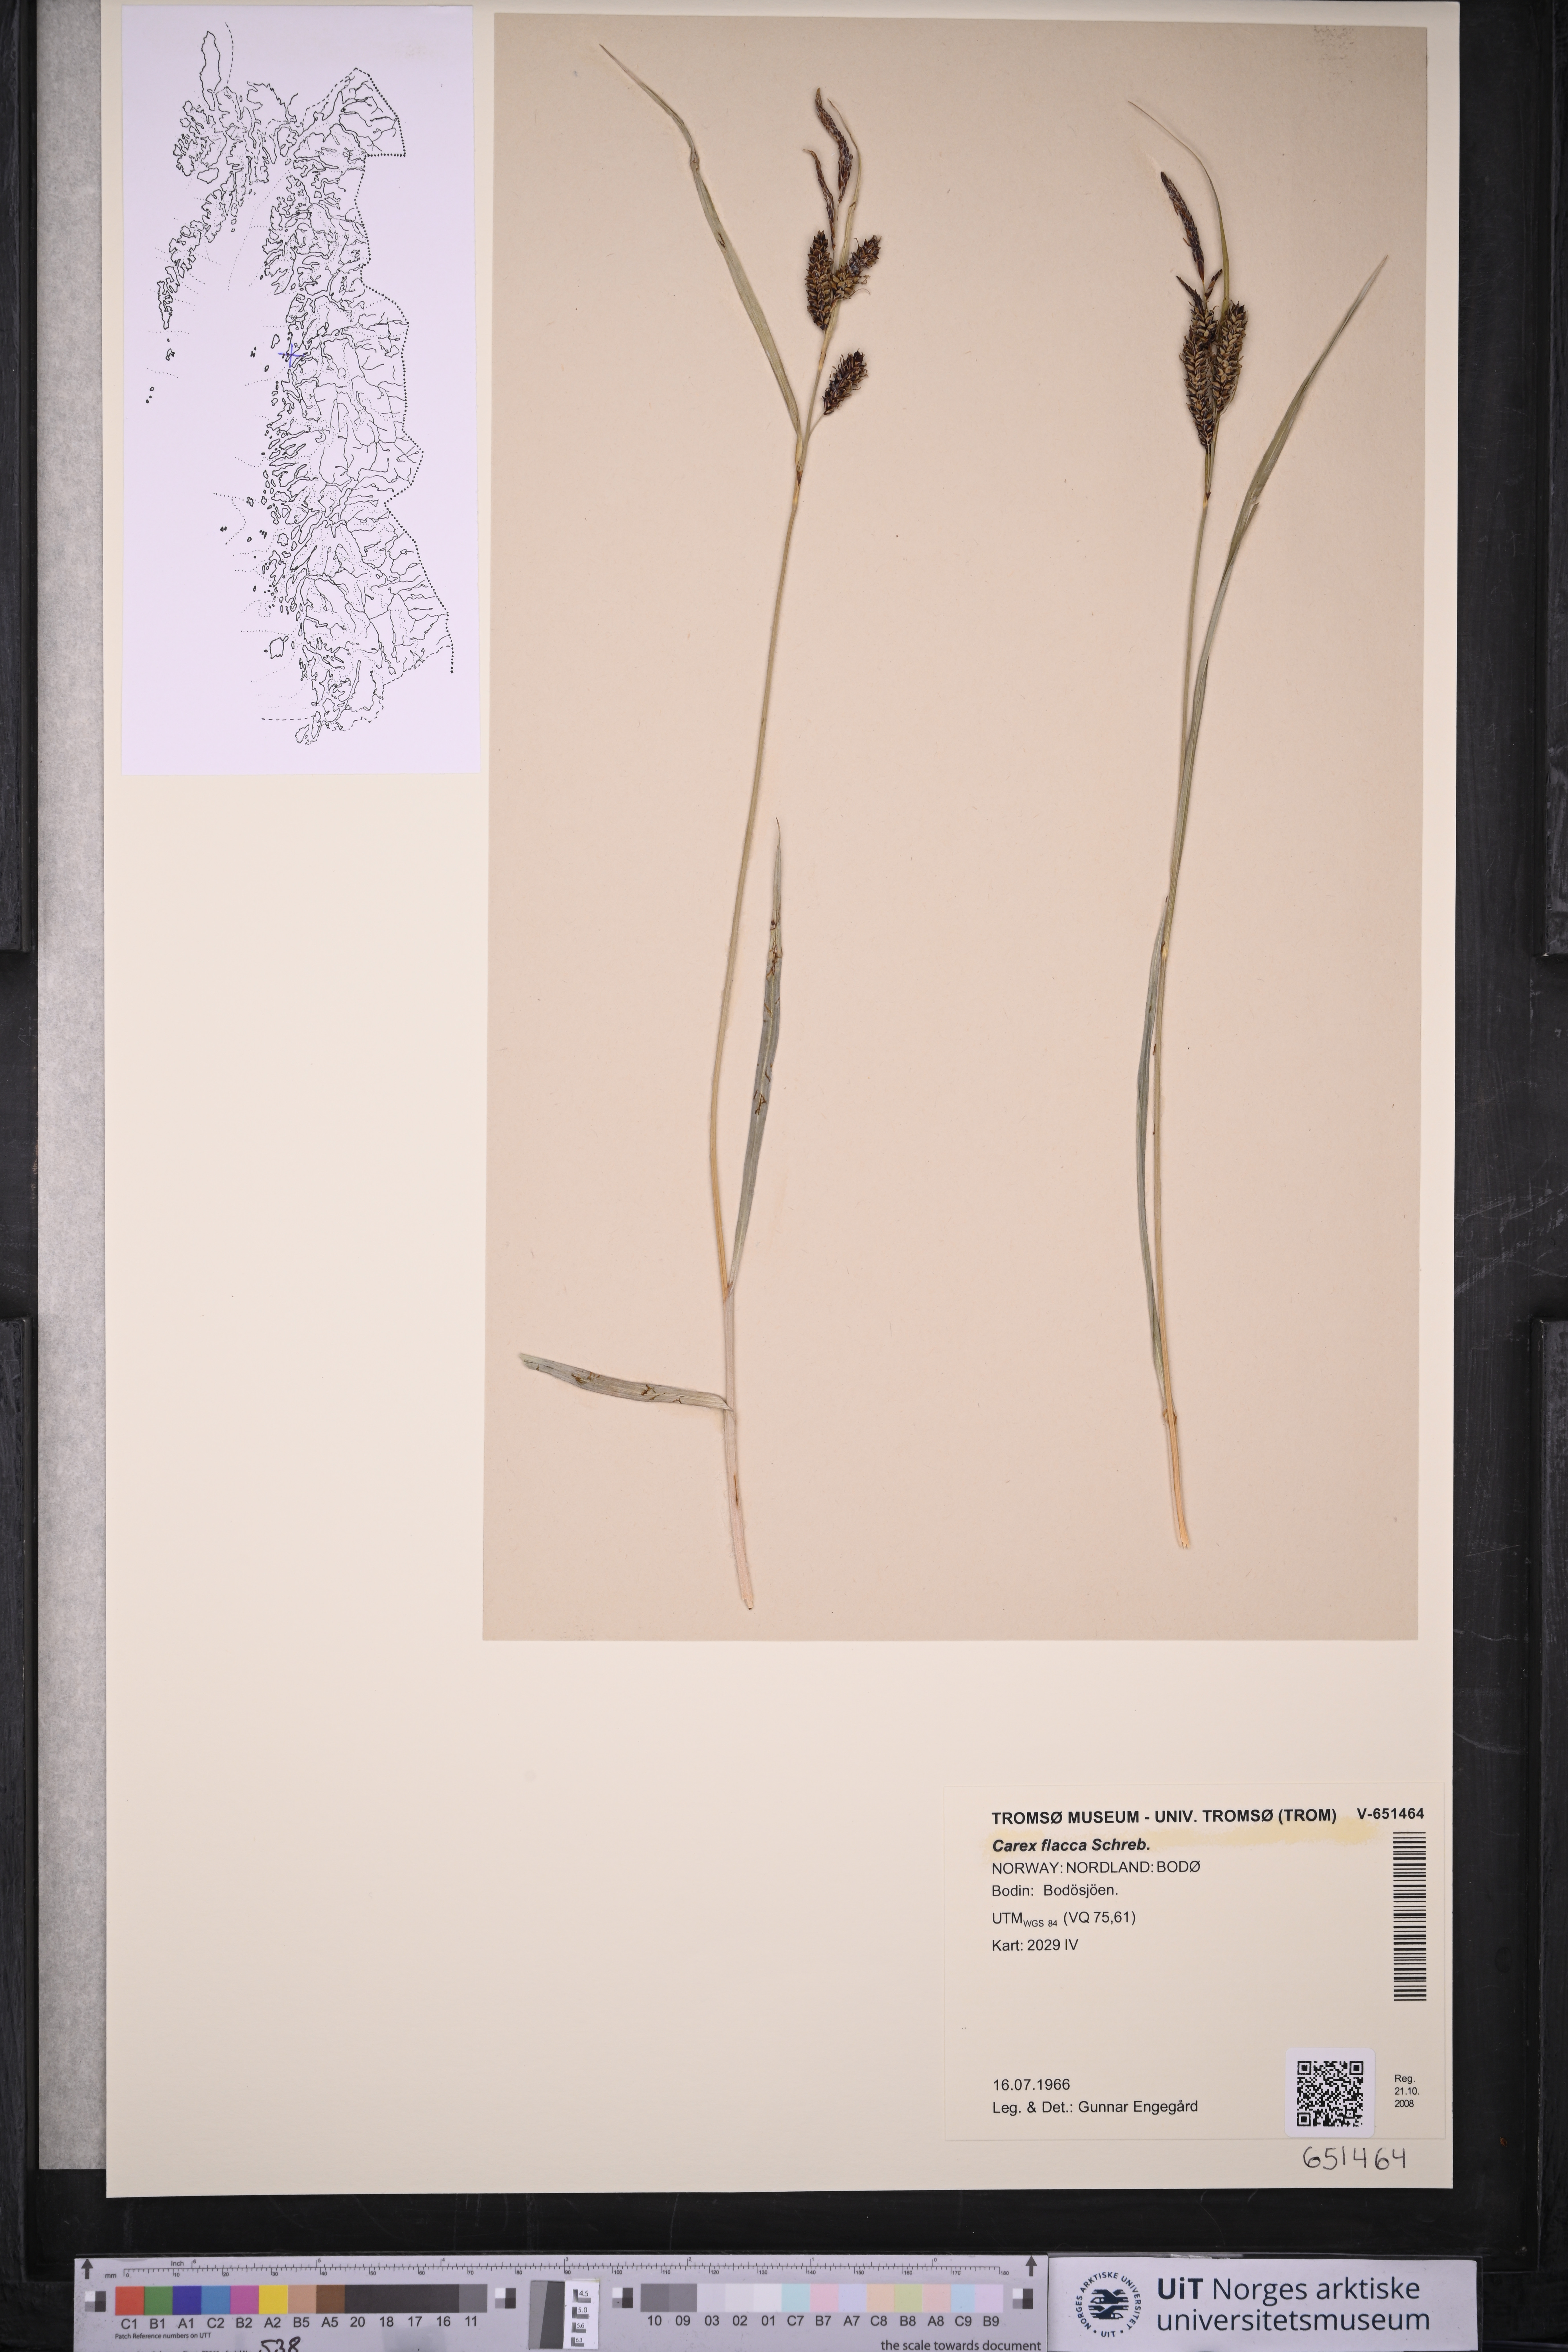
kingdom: Plantae
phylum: Tracheophyta
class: Liliopsida
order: Poales
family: Cyperaceae
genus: Carex
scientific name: Carex flacca
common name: Glaucous sedge
